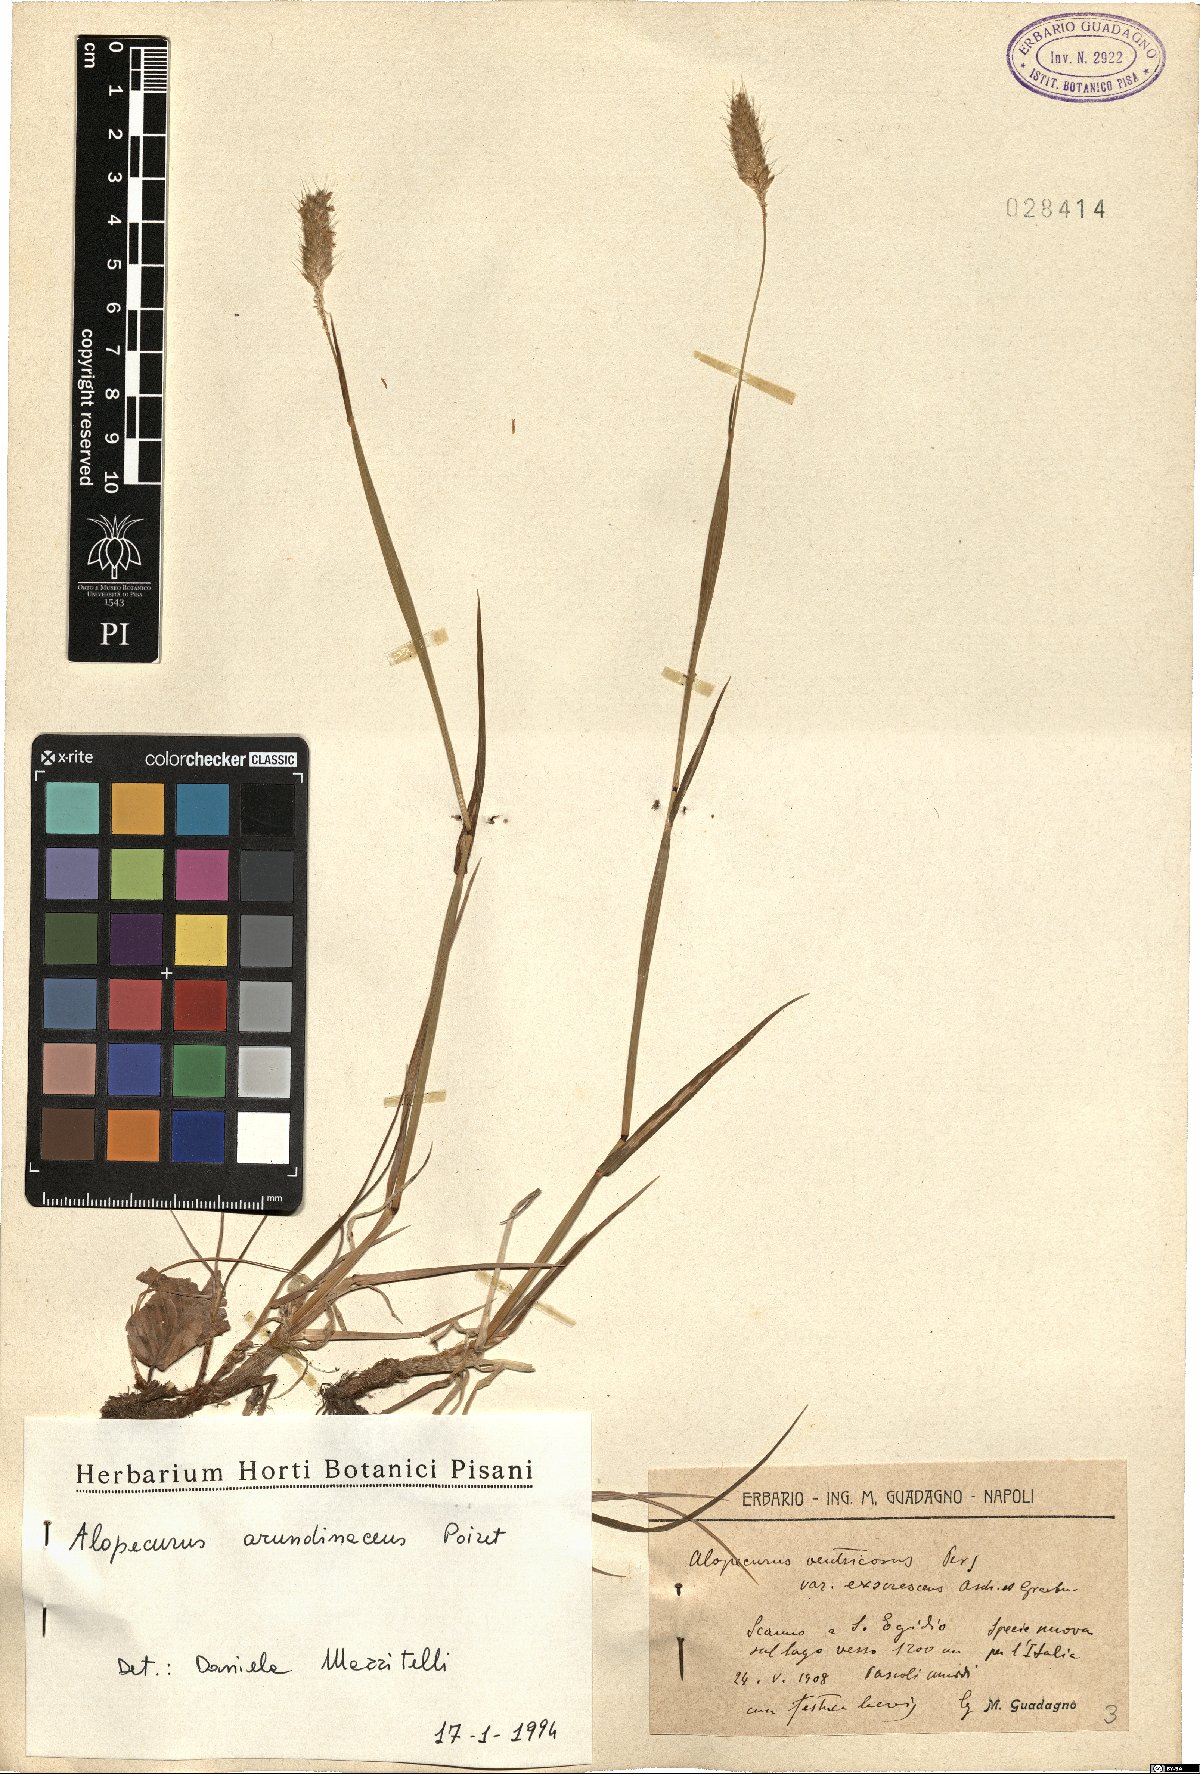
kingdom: Plantae
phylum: Tracheophyta
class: Liliopsida
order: Poales
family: Poaceae
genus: Alopecurus
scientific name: Alopecurus arundinaceus
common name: Creeping meadow foxtail
